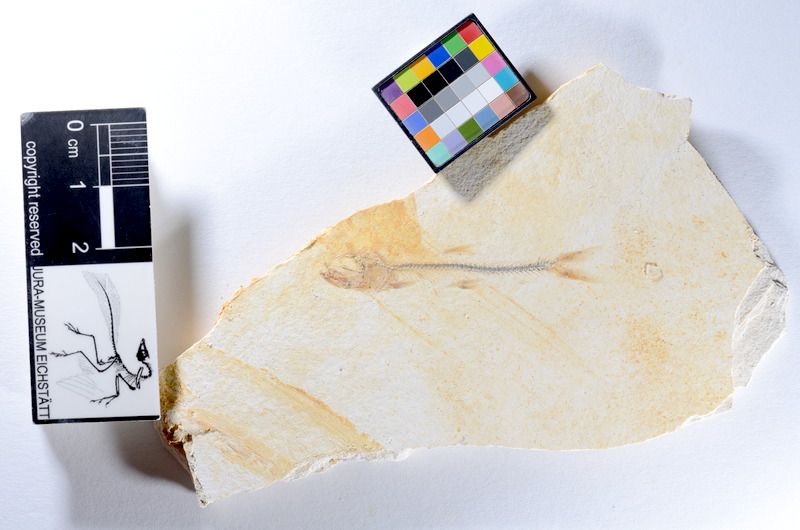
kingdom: Animalia
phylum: Chordata
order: Salmoniformes
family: Orthogonikleithridae
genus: Orthogonikleithrus
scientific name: Orthogonikleithrus hoelli
